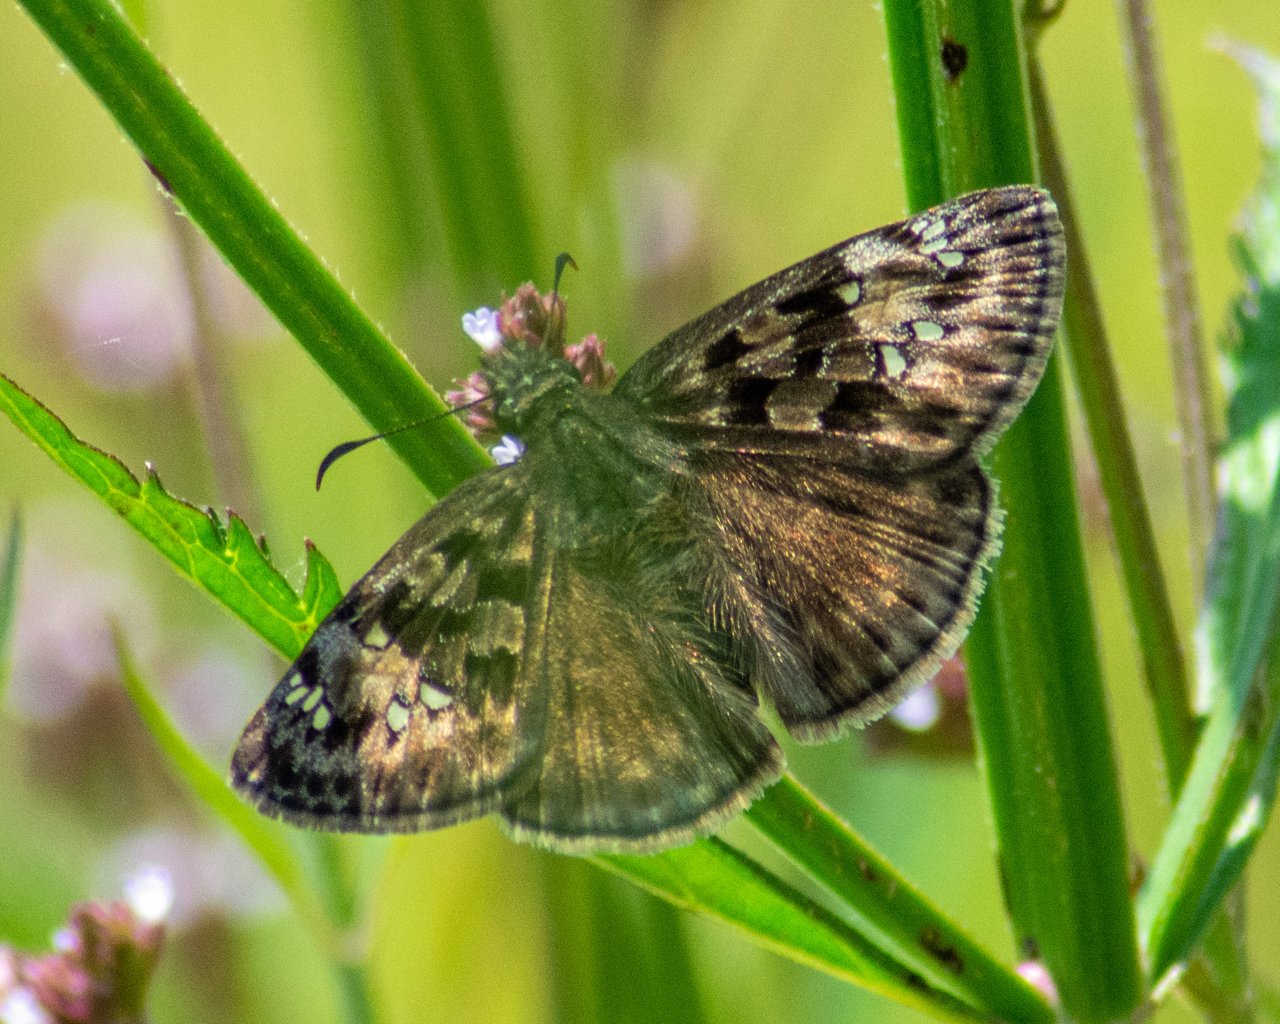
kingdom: Animalia
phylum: Arthropoda
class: Insecta
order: Lepidoptera
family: Hesperiidae
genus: Gesta
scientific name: Gesta
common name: Horace's Duskywing
